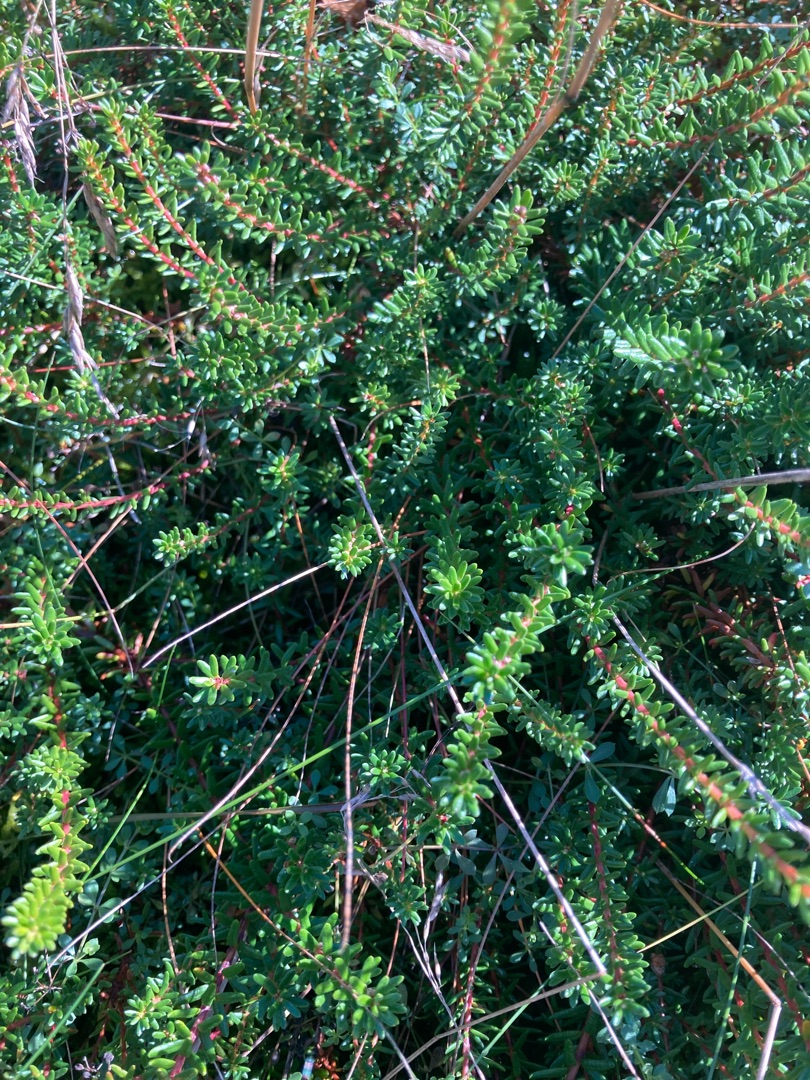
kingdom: Plantae
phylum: Tracheophyta
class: Magnoliopsida
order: Ericales
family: Ericaceae
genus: Empetrum
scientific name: Empetrum nigrum
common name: Revling
